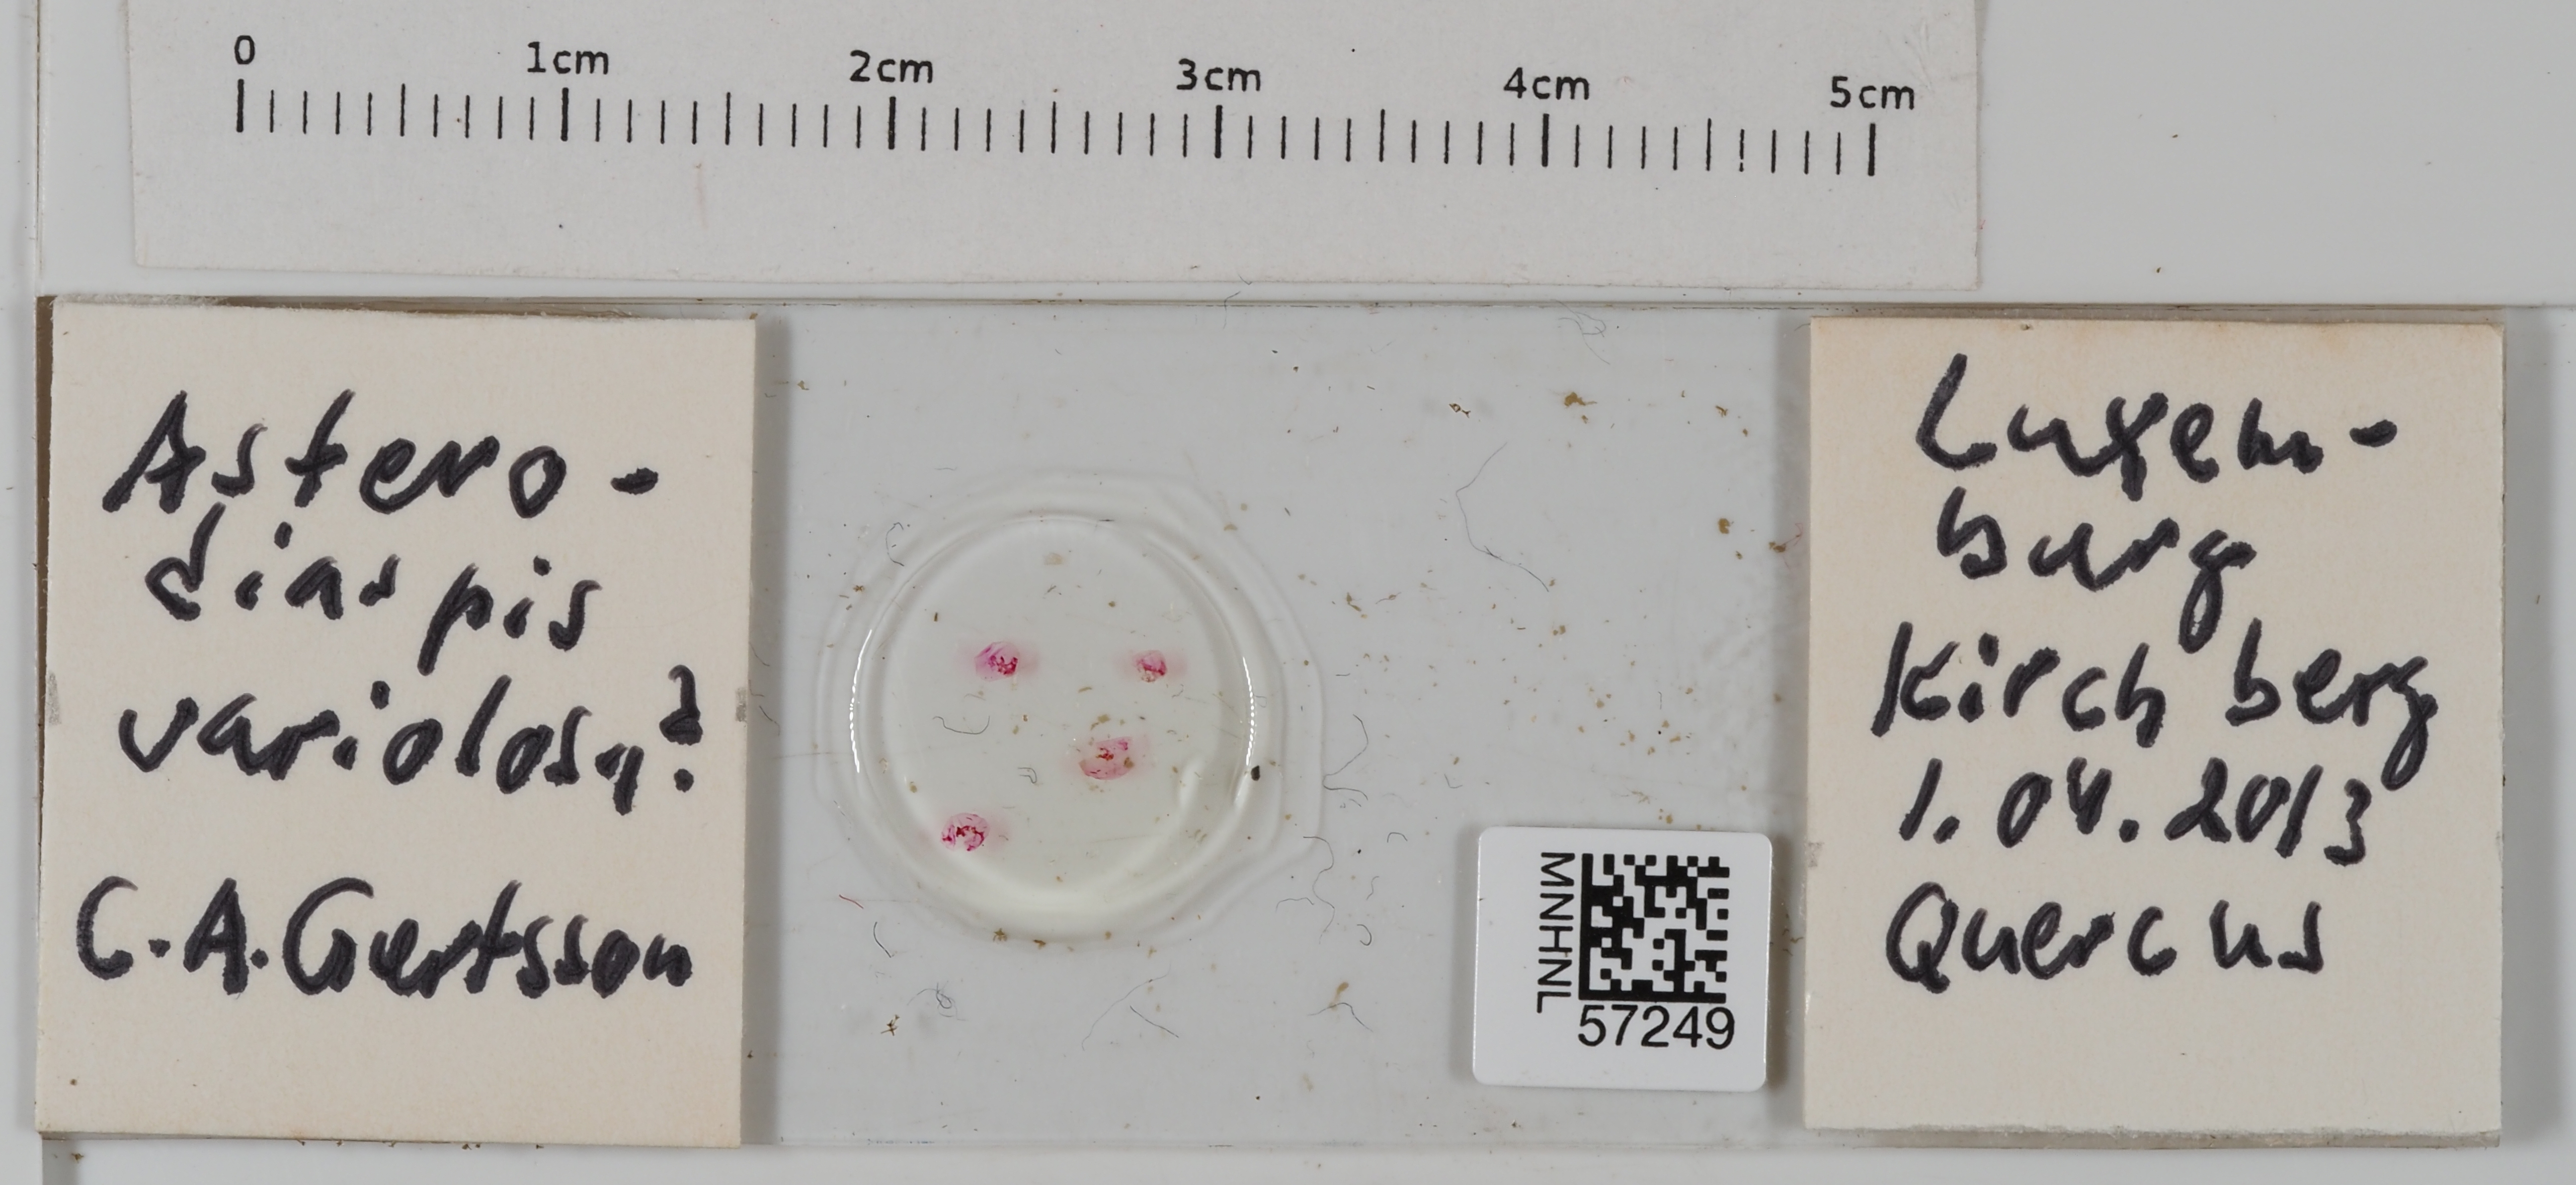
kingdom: Animalia
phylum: Arthropoda
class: Insecta
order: Hemiptera
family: Asterolecaniidae
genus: Asterodiaspis
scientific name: Asterodiaspis variolosa
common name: Golden oak scale
